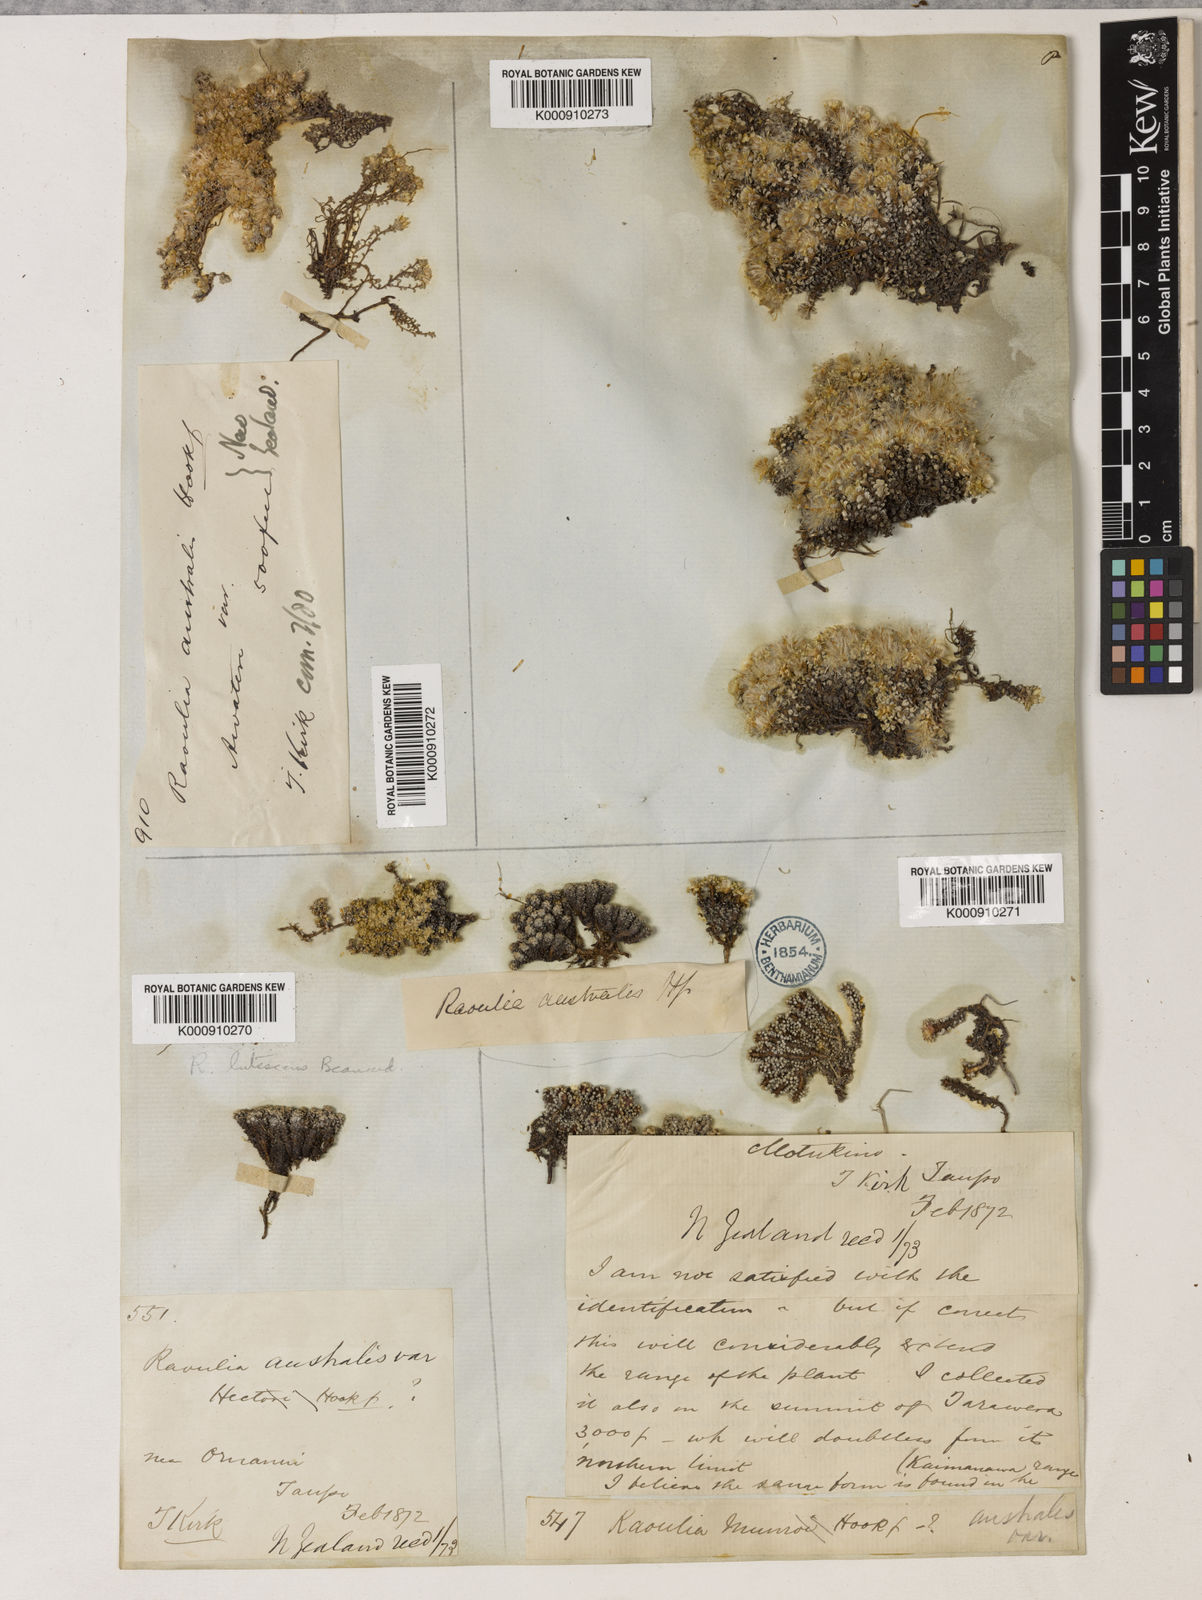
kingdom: Plantae
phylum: Tracheophyta
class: Magnoliopsida
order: Asterales
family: Asteraceae
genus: Raoulia
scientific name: Raoulia
